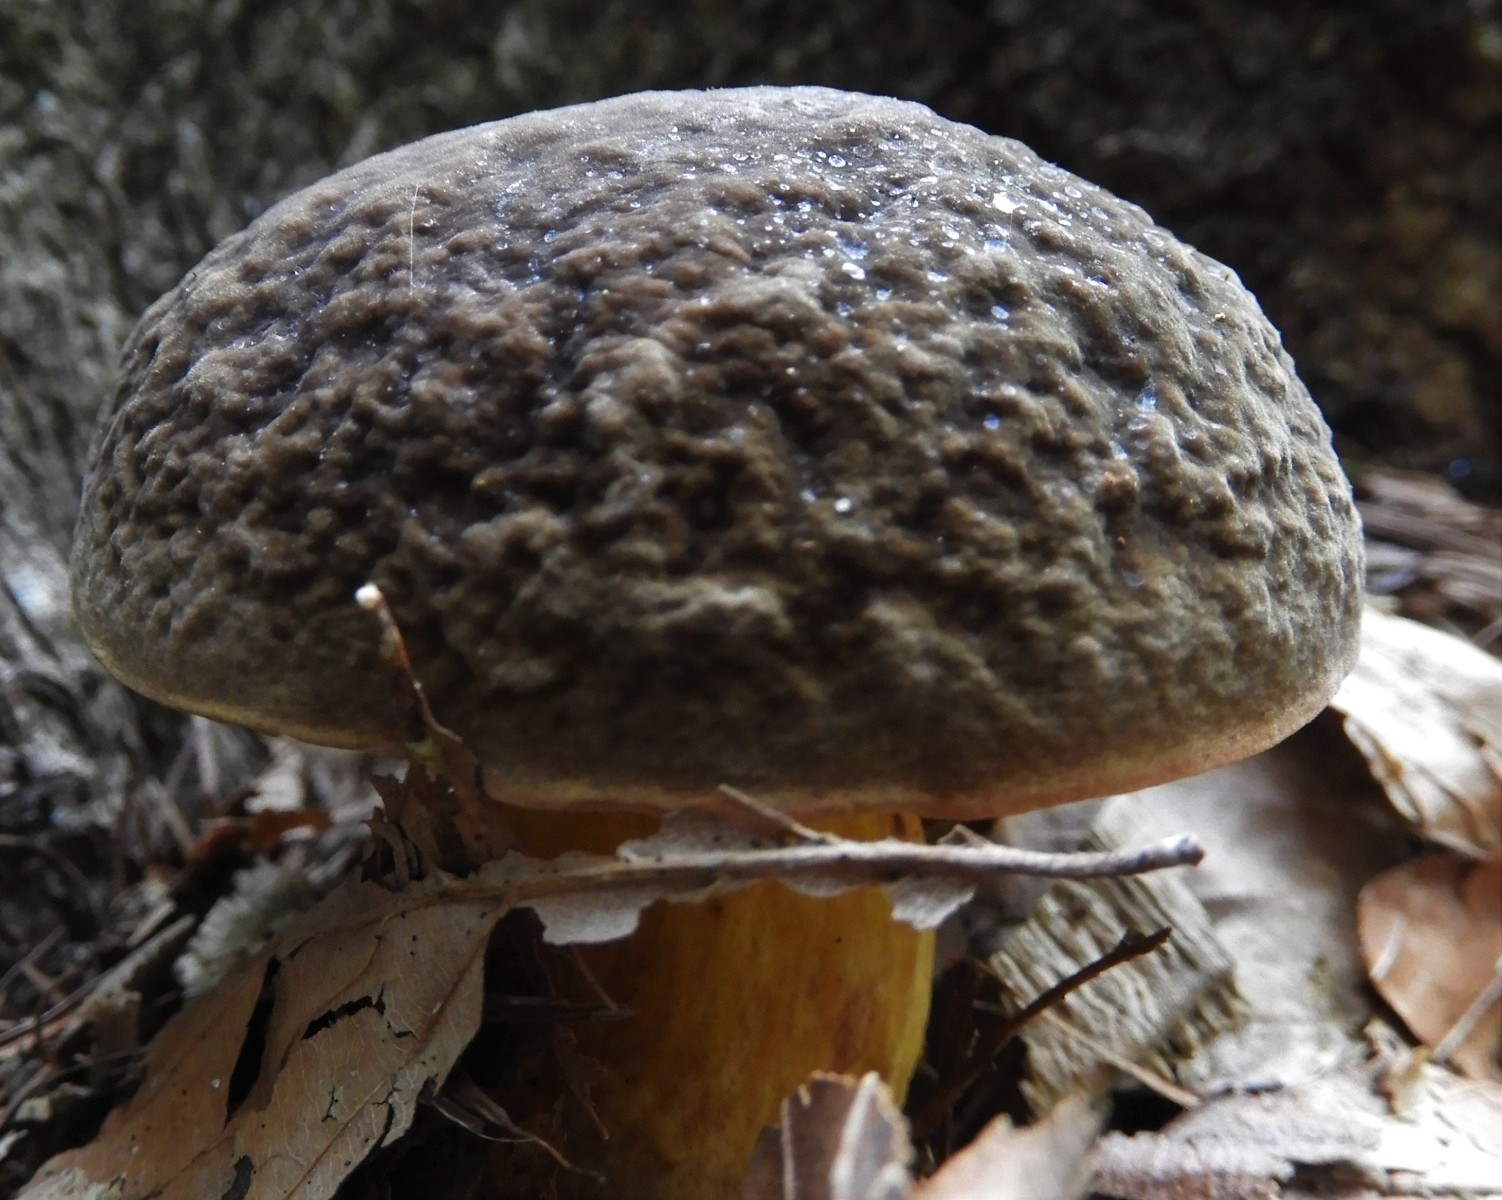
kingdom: Fungi
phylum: Basidiomycota
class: Agaricomycetes
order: Boletales
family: Boletaceae
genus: Xerocomellus
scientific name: Xerocomellus pruinatus
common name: dugget rørhat
